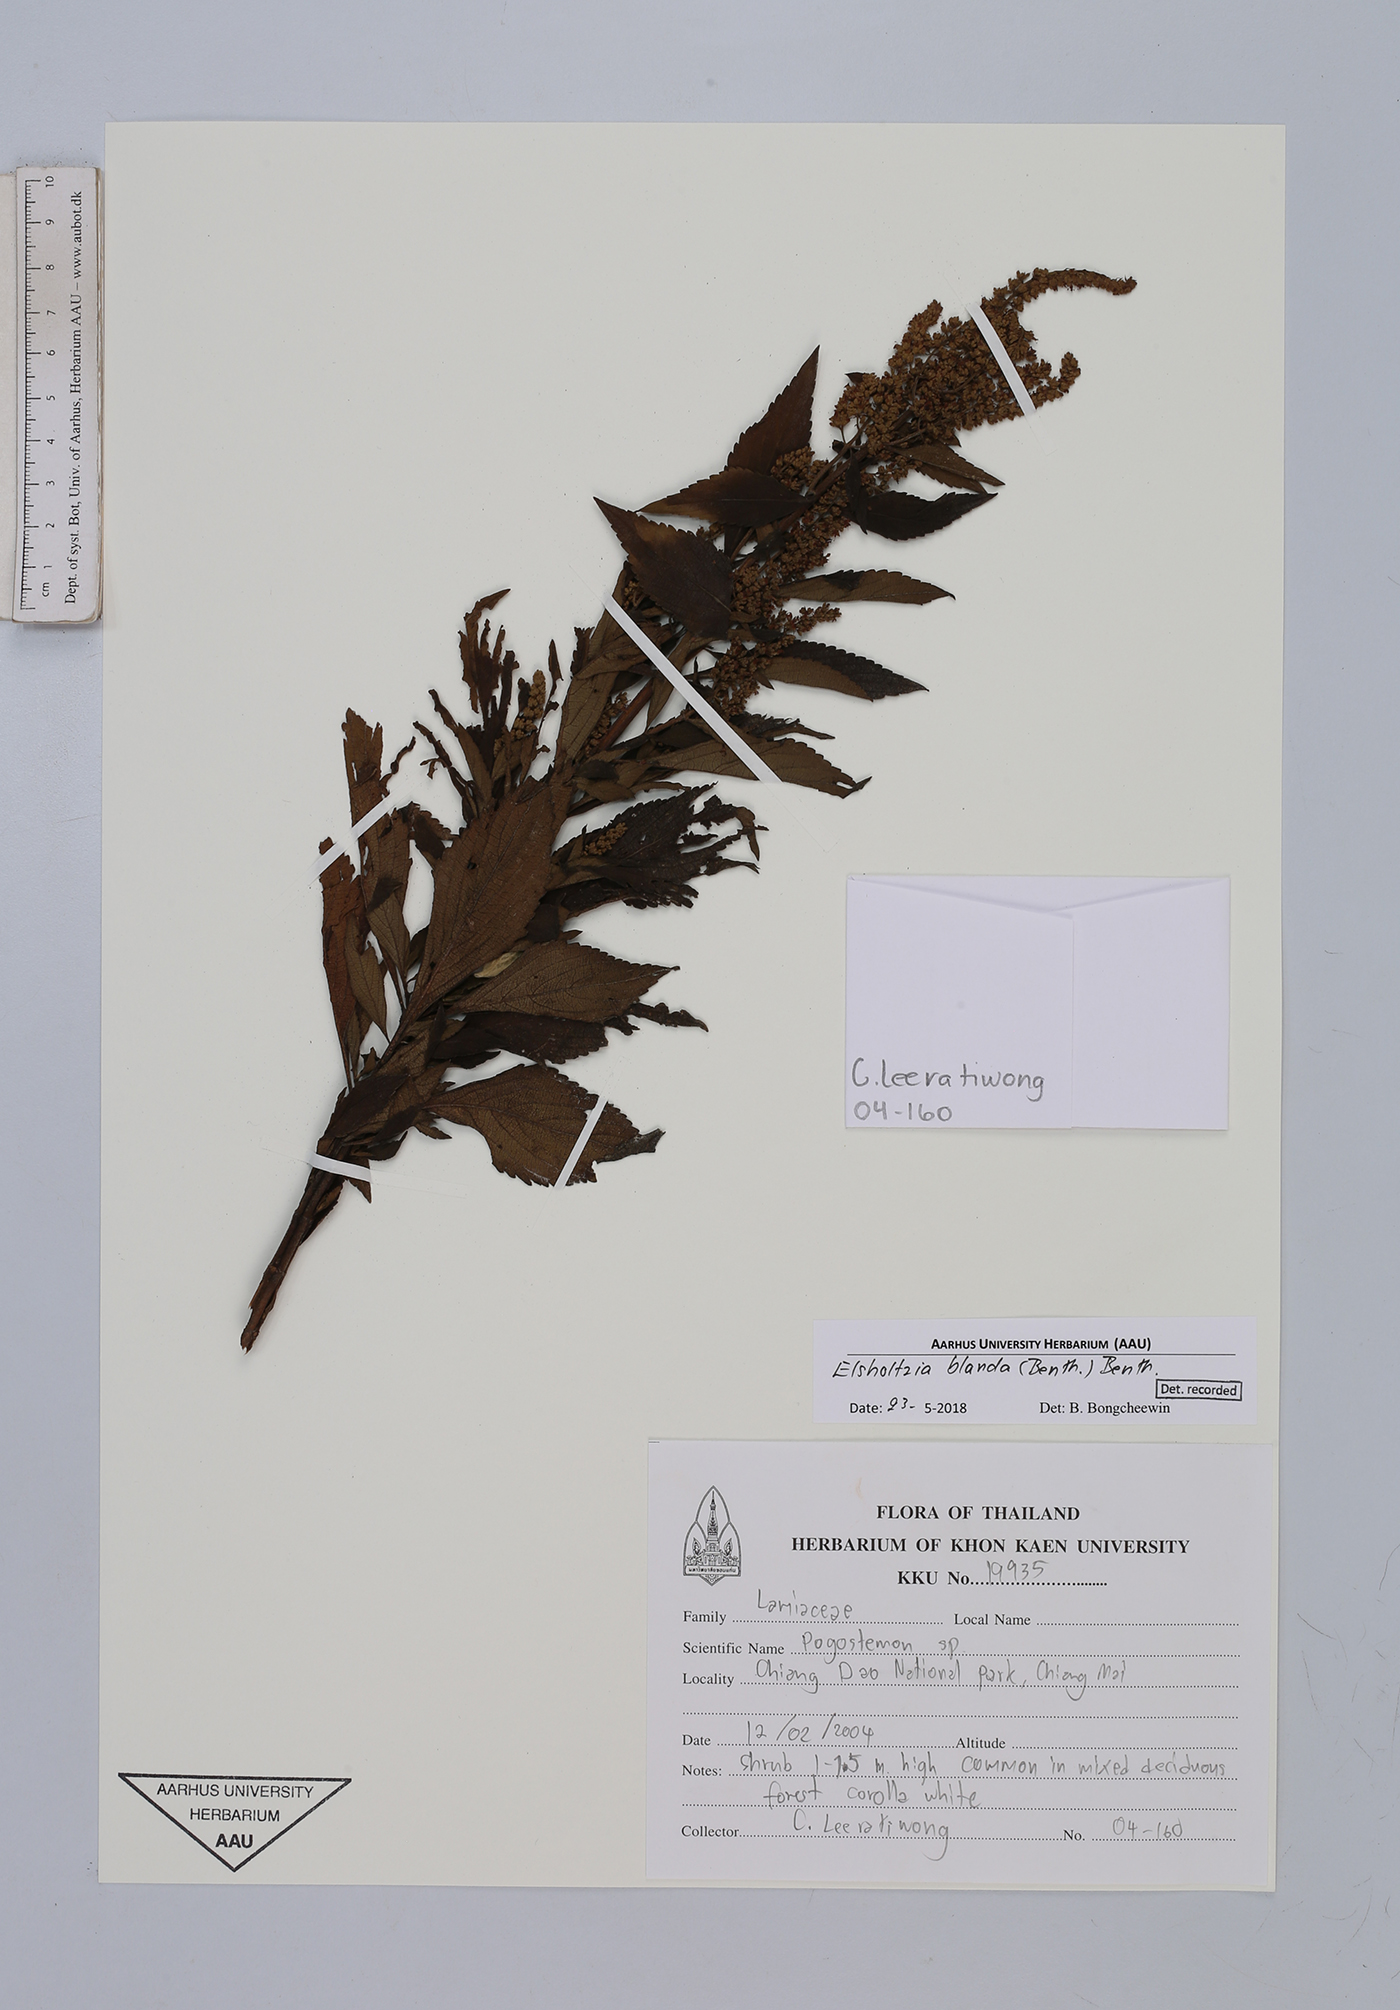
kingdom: Plantae
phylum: Tracheophyta
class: Magnoliopsida
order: Lamiales
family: Lamiaceae
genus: Elsholtzia
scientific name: Elsholtzia blanda
